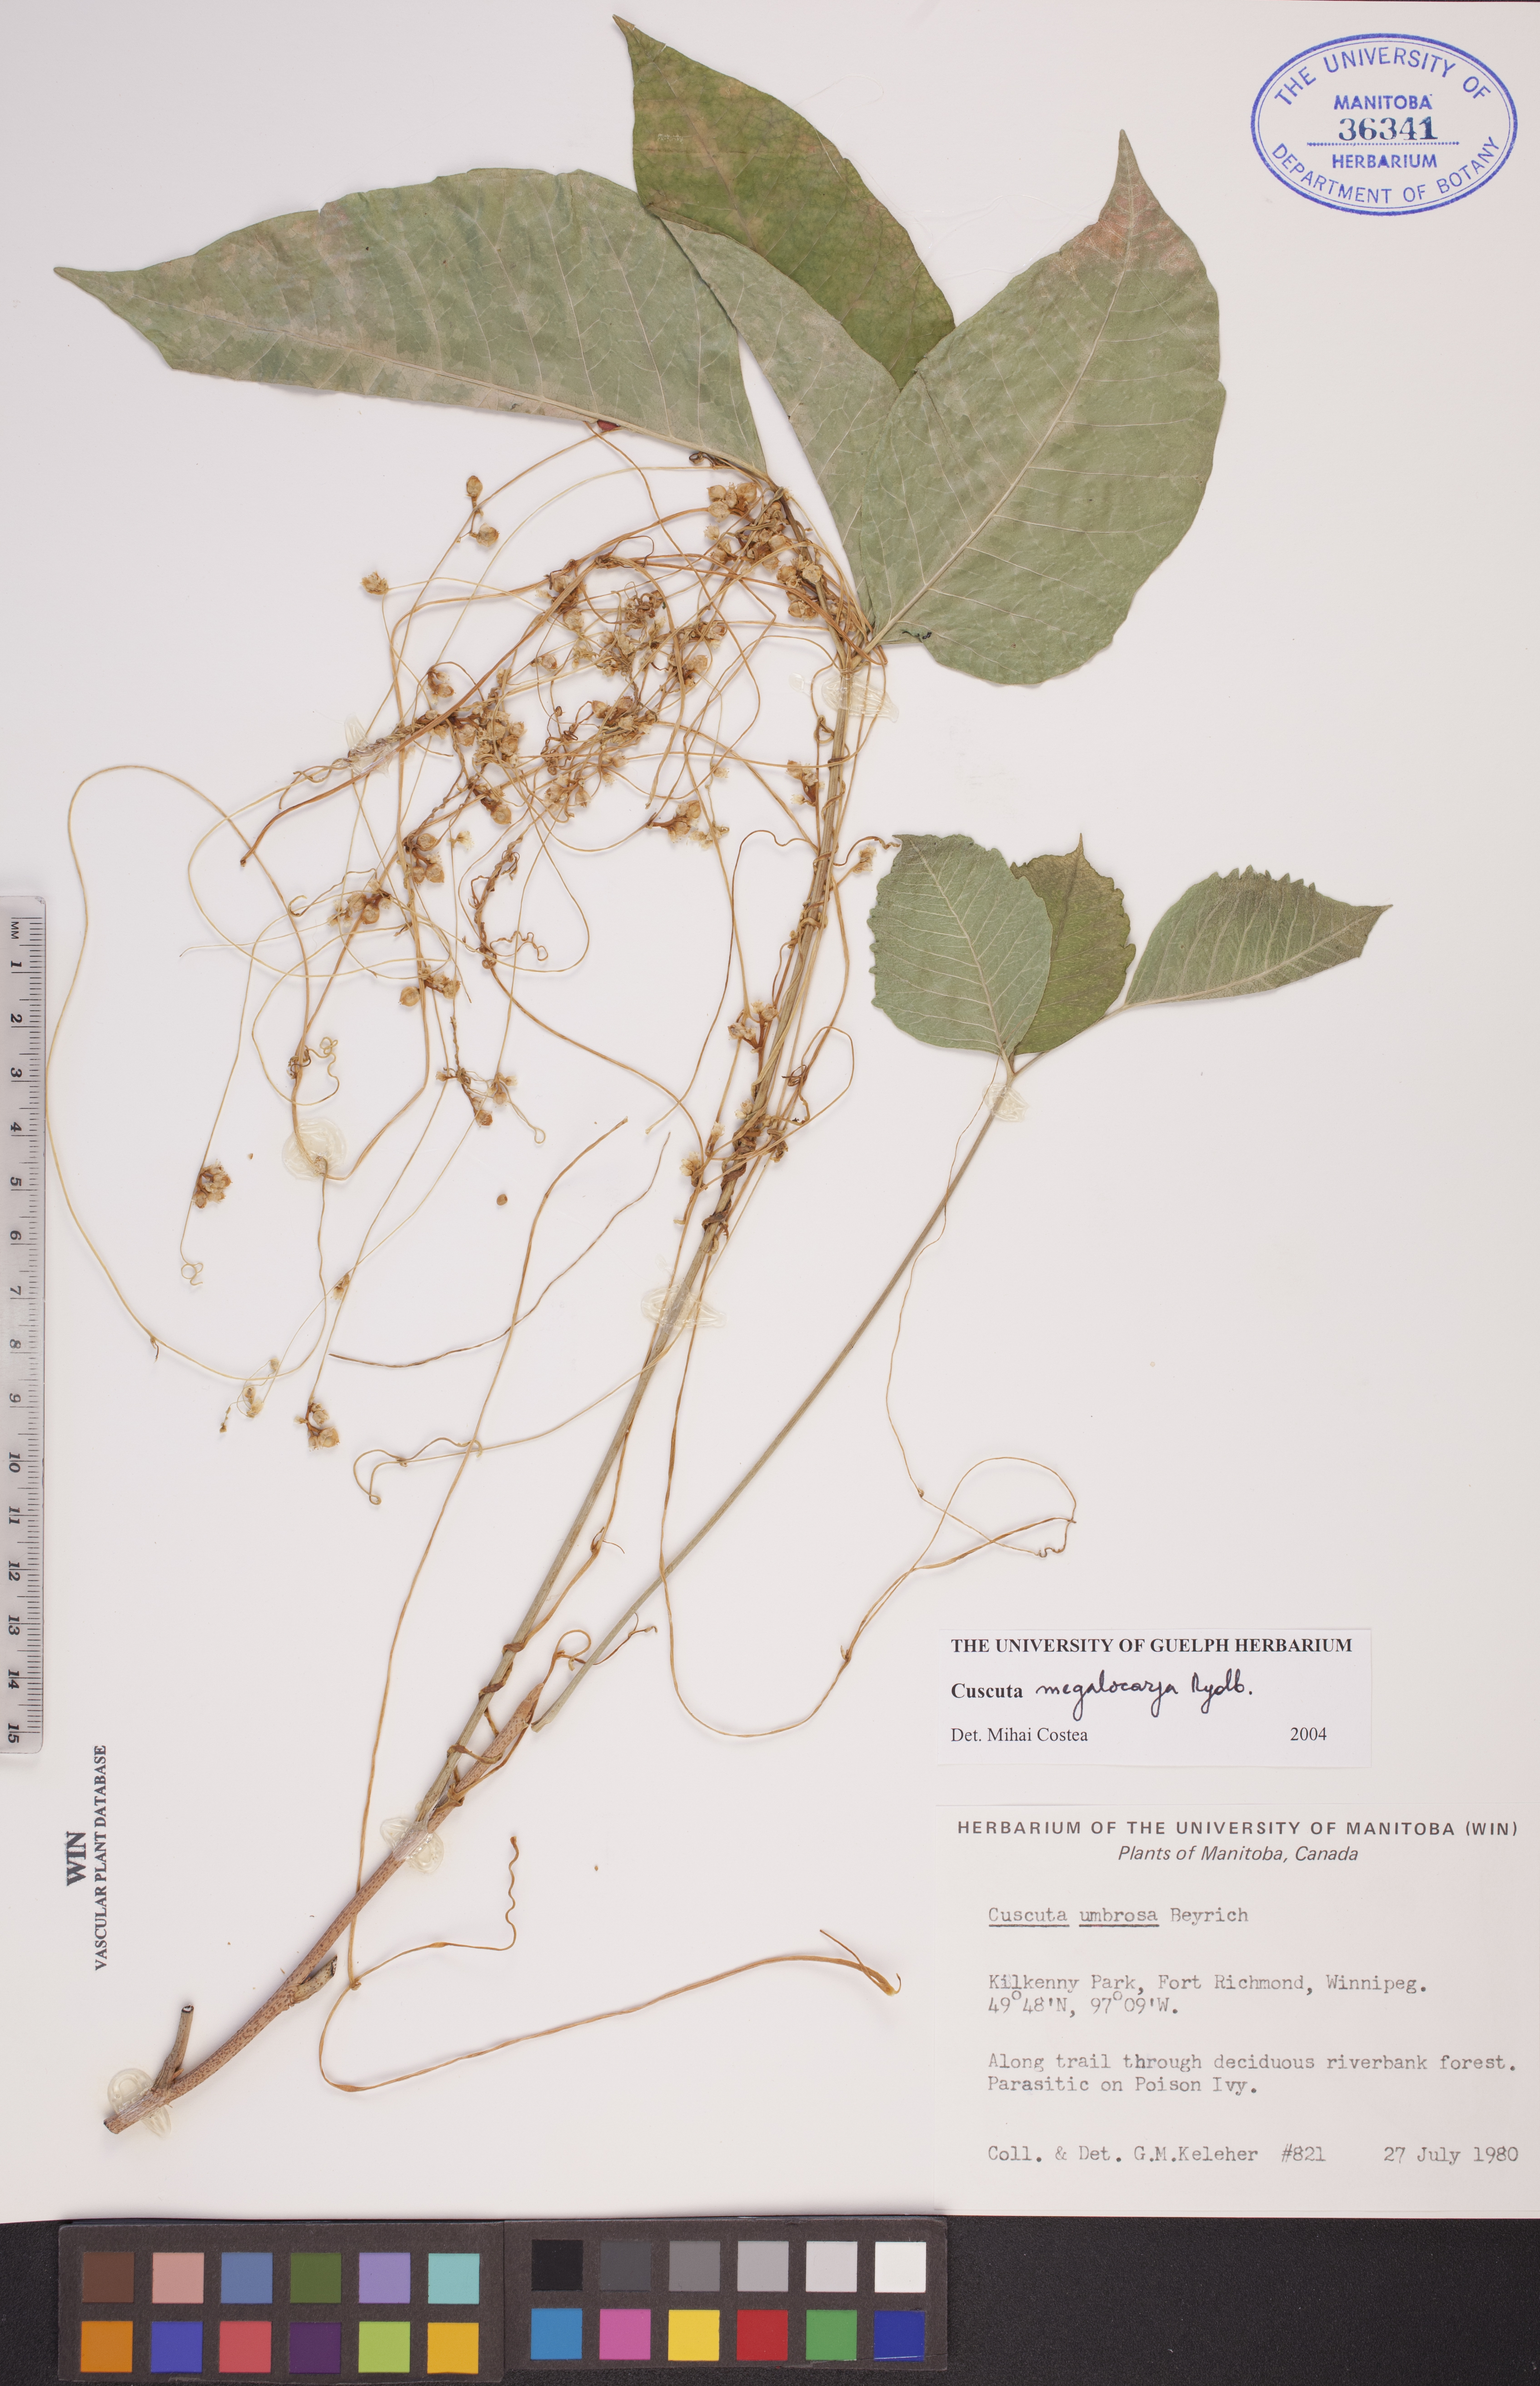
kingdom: Plantae
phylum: Tracheophyta
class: Magnoliopsida
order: Solanales
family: Convolvulaceae
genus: Cuscuta
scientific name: Cuscuta umbrosa
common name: Bigfruit dodder
